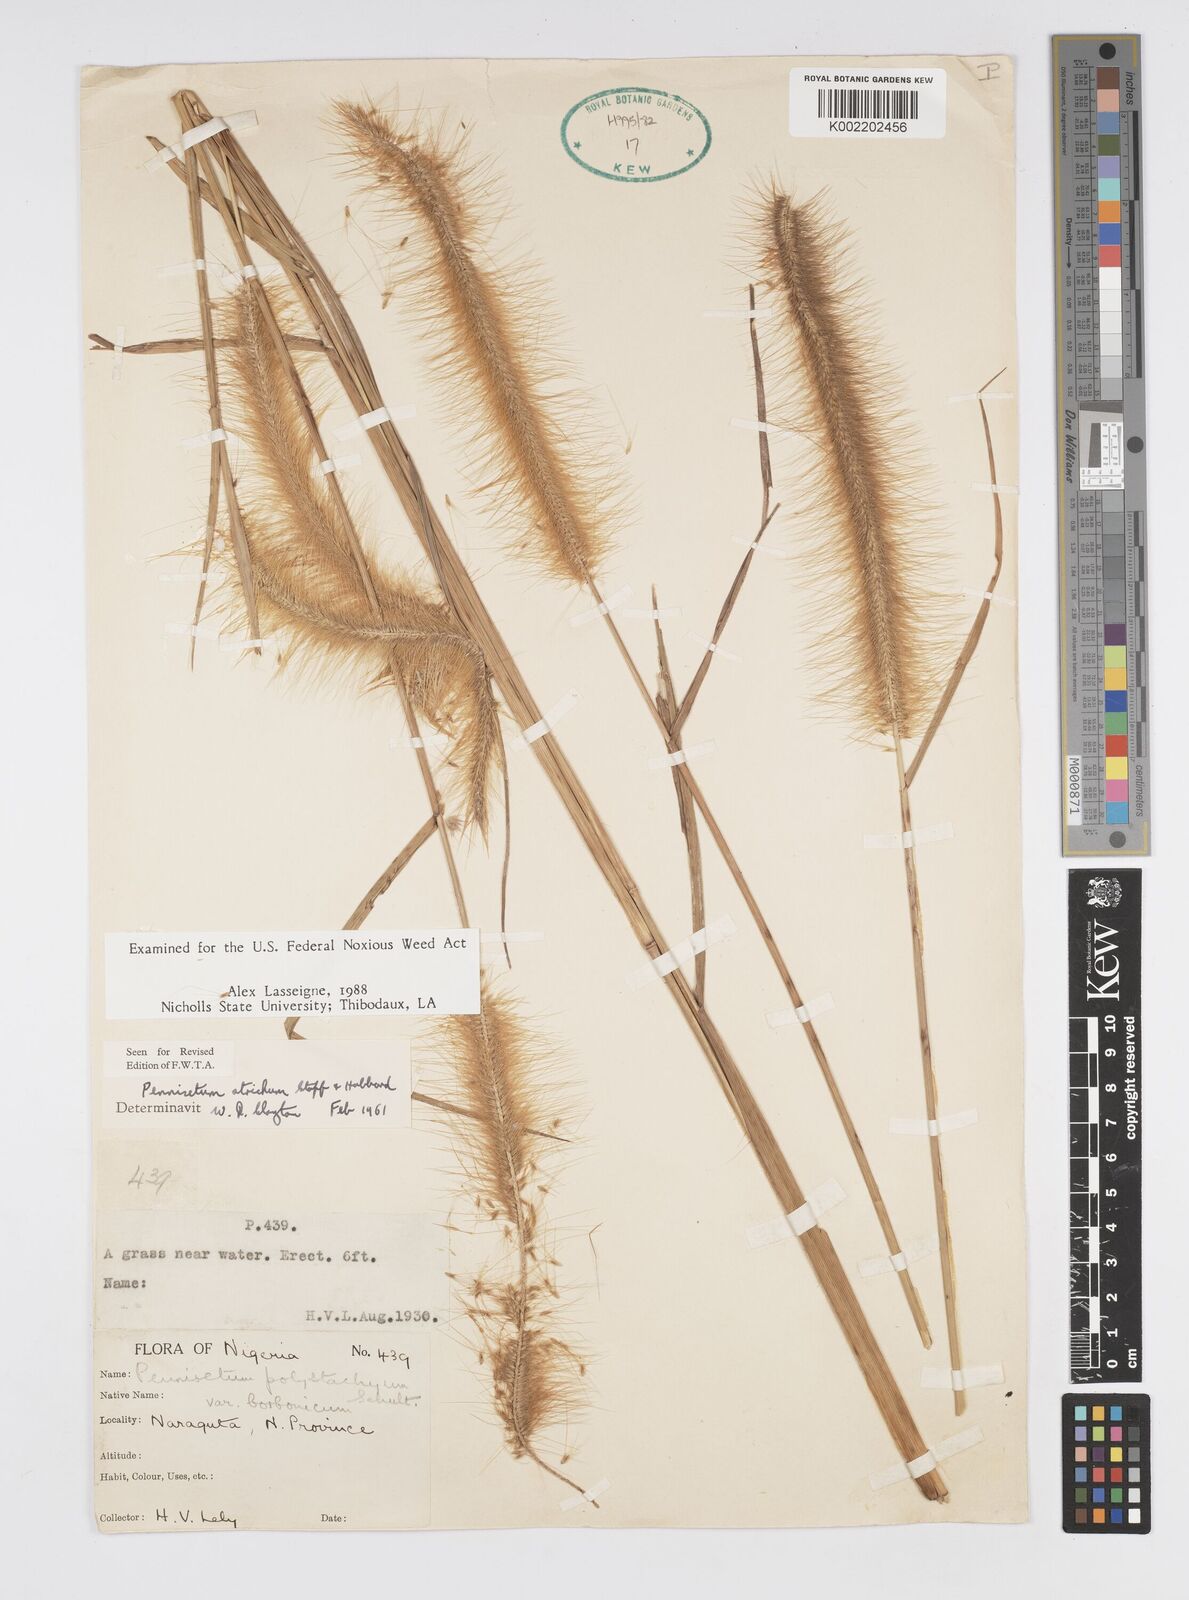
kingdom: Plantae
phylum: Tracheophyta
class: Liliopsida
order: Poales
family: Poaceae
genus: Cenchrus
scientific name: Cenchrus setosus
